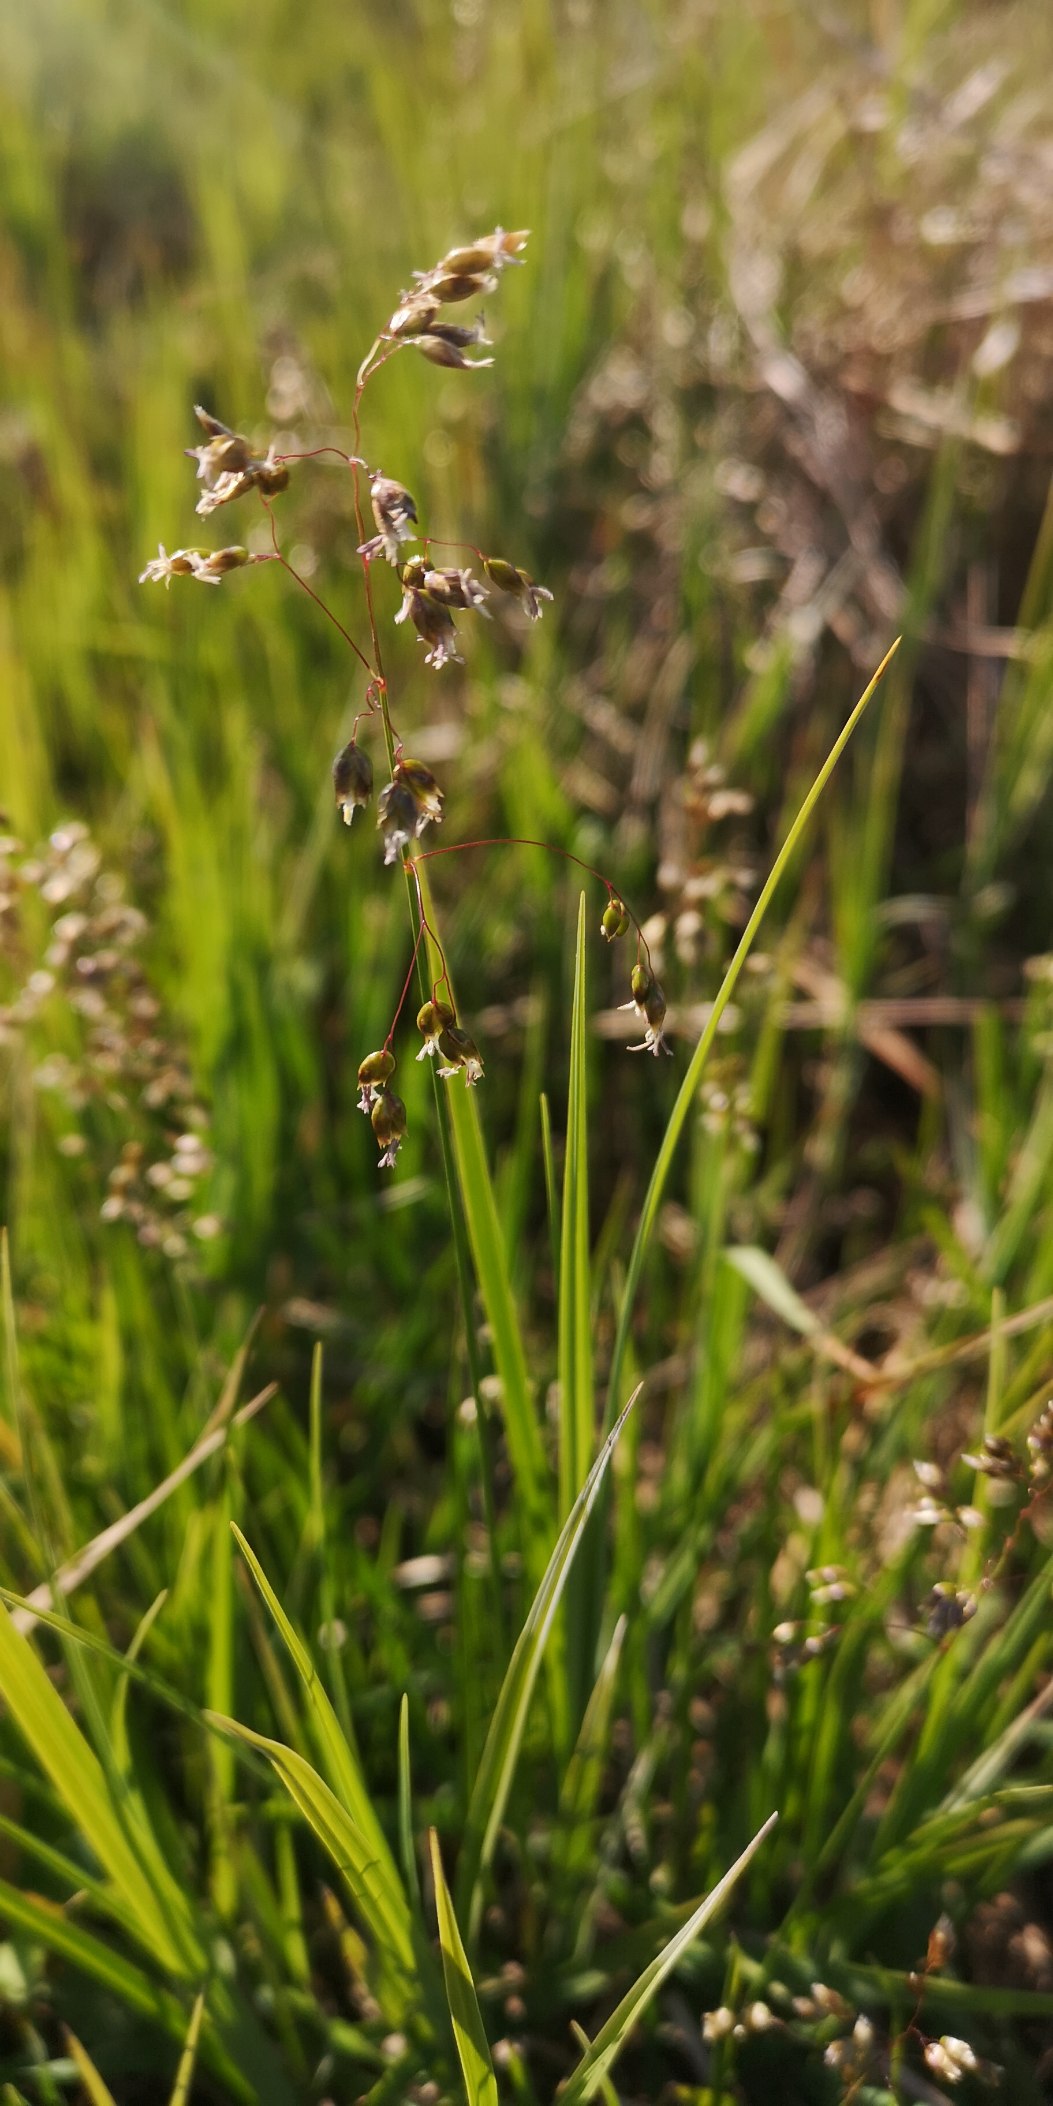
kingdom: Plantae
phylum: Tracheophyta
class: Liliopsida
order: Poales
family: Poaceae
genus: Anthoxanthum
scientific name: Anthoxanthum nitens
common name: Festgræs
